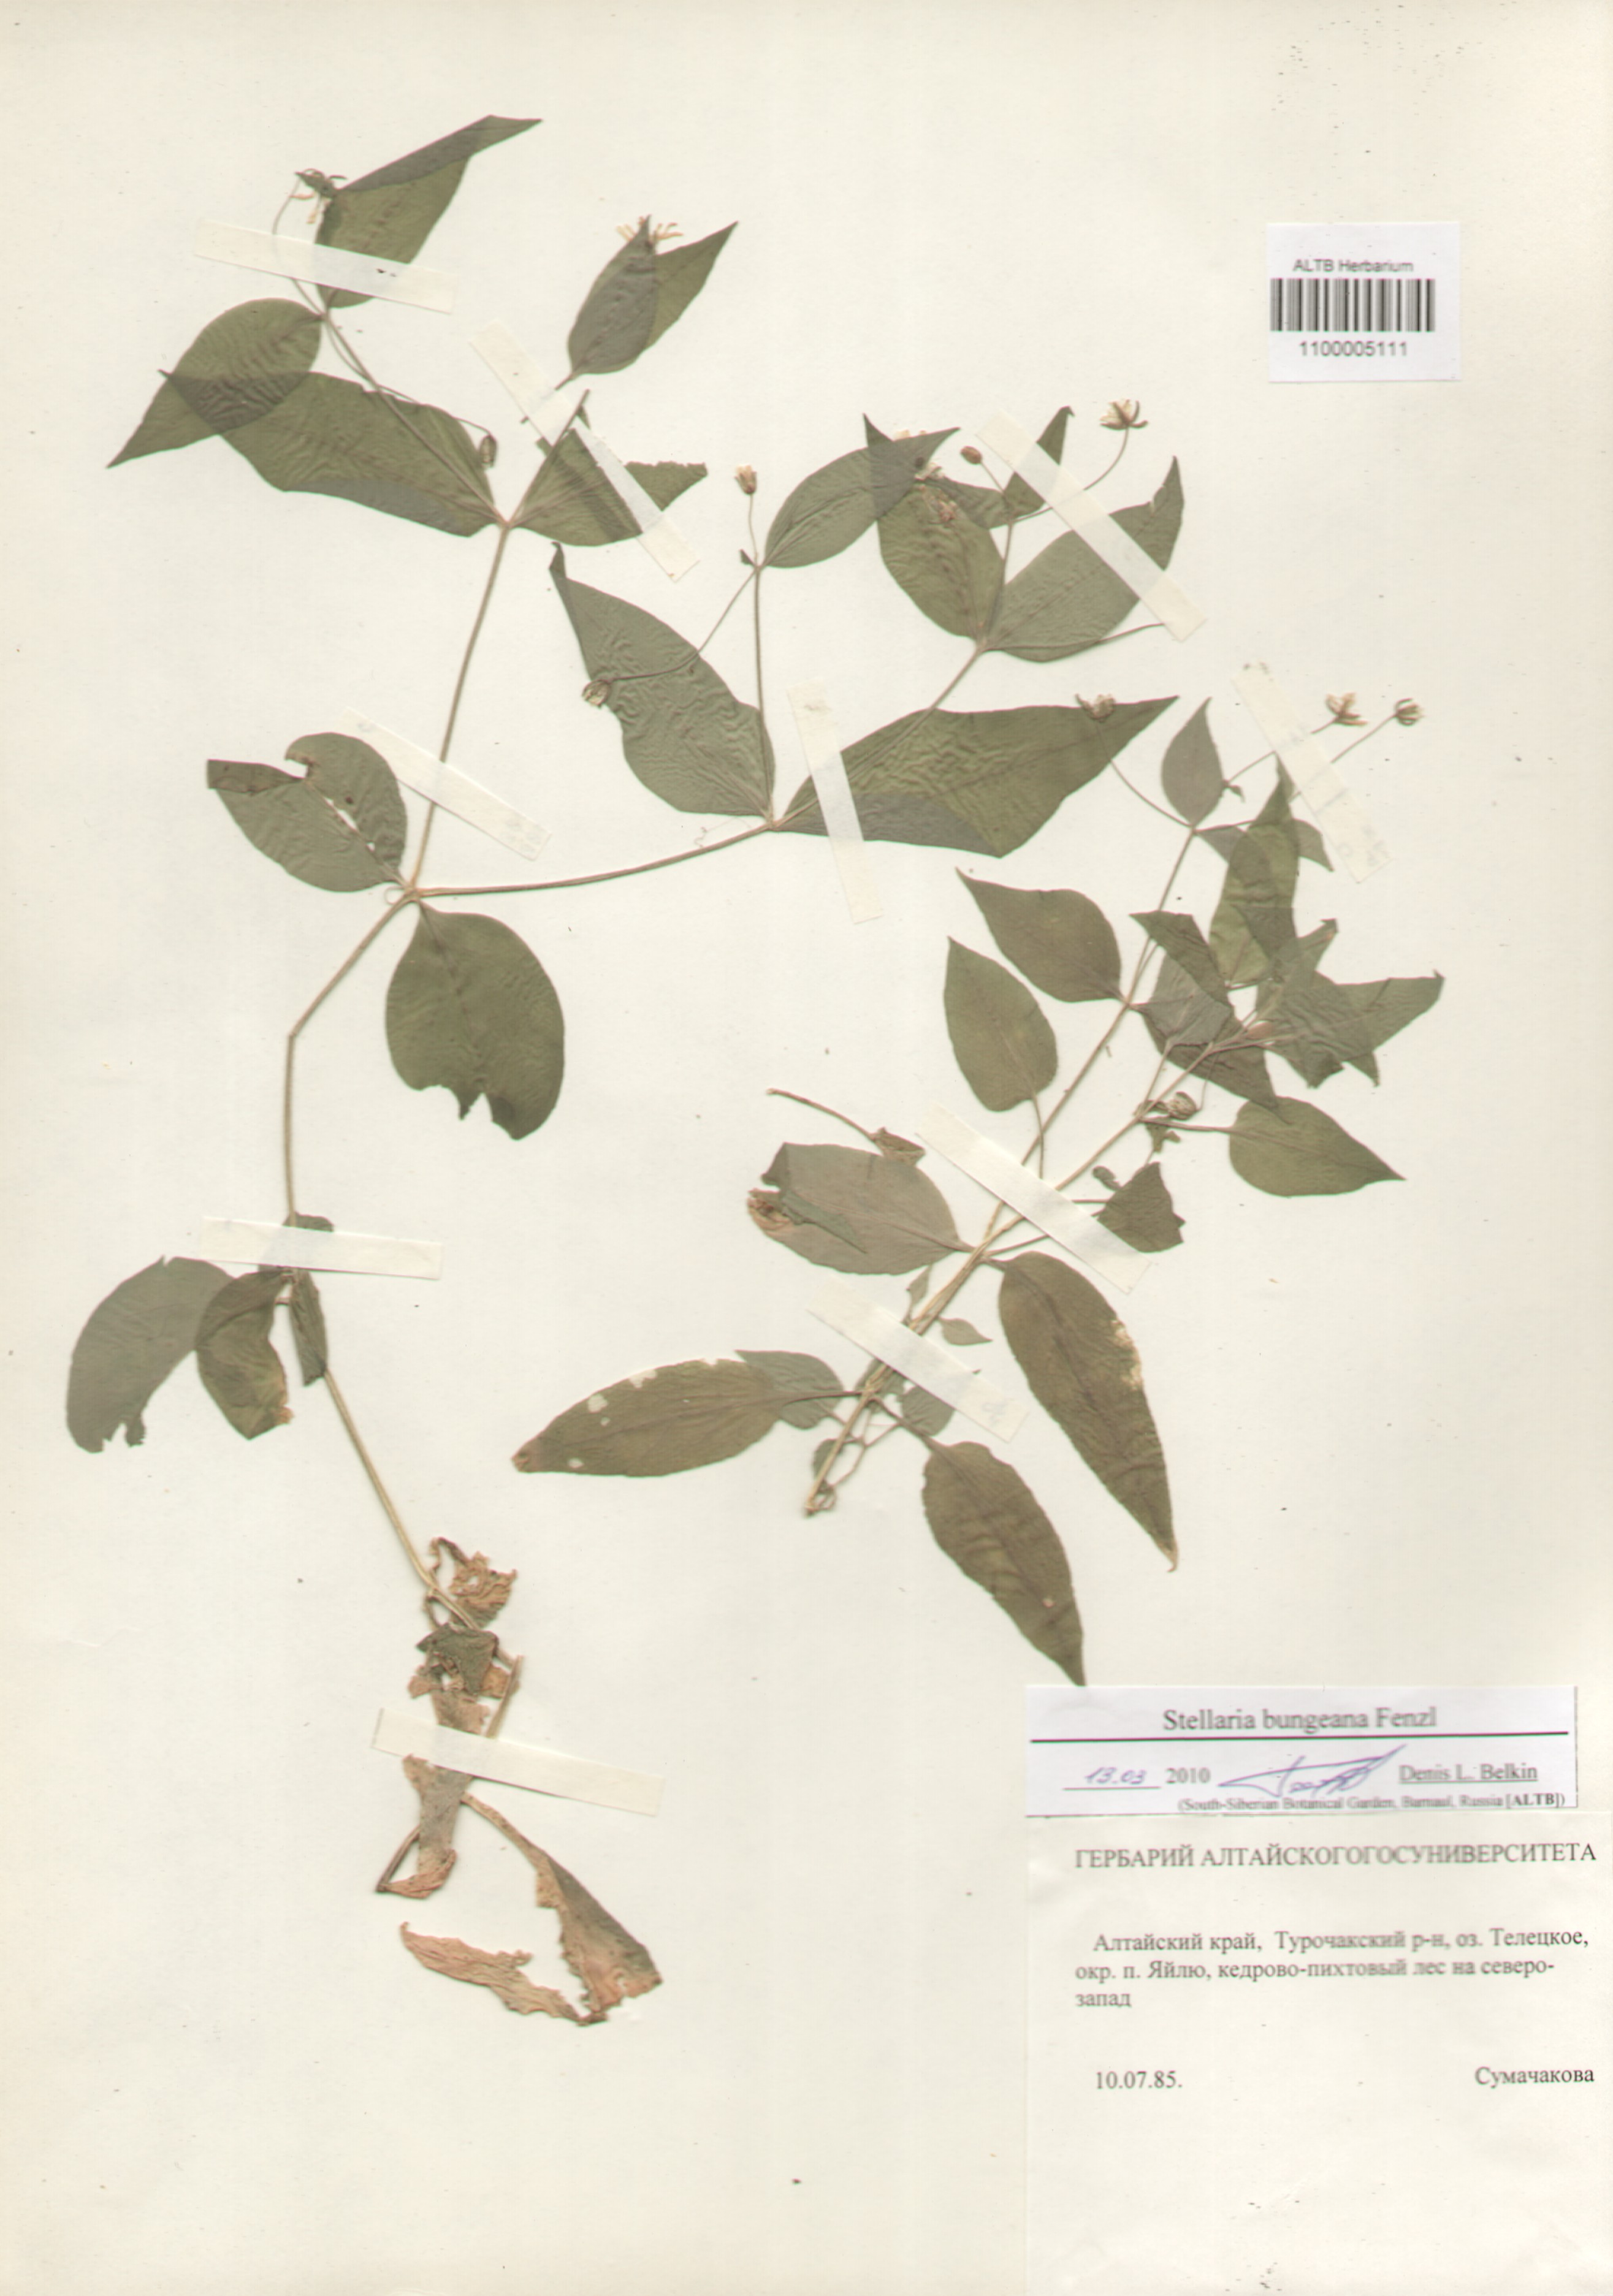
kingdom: Plantae
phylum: Tracheophyta
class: Magnoliopsida
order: Caryophyllales
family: Caryophyllaceae
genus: Stellaria
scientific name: Stellaria bungeana
